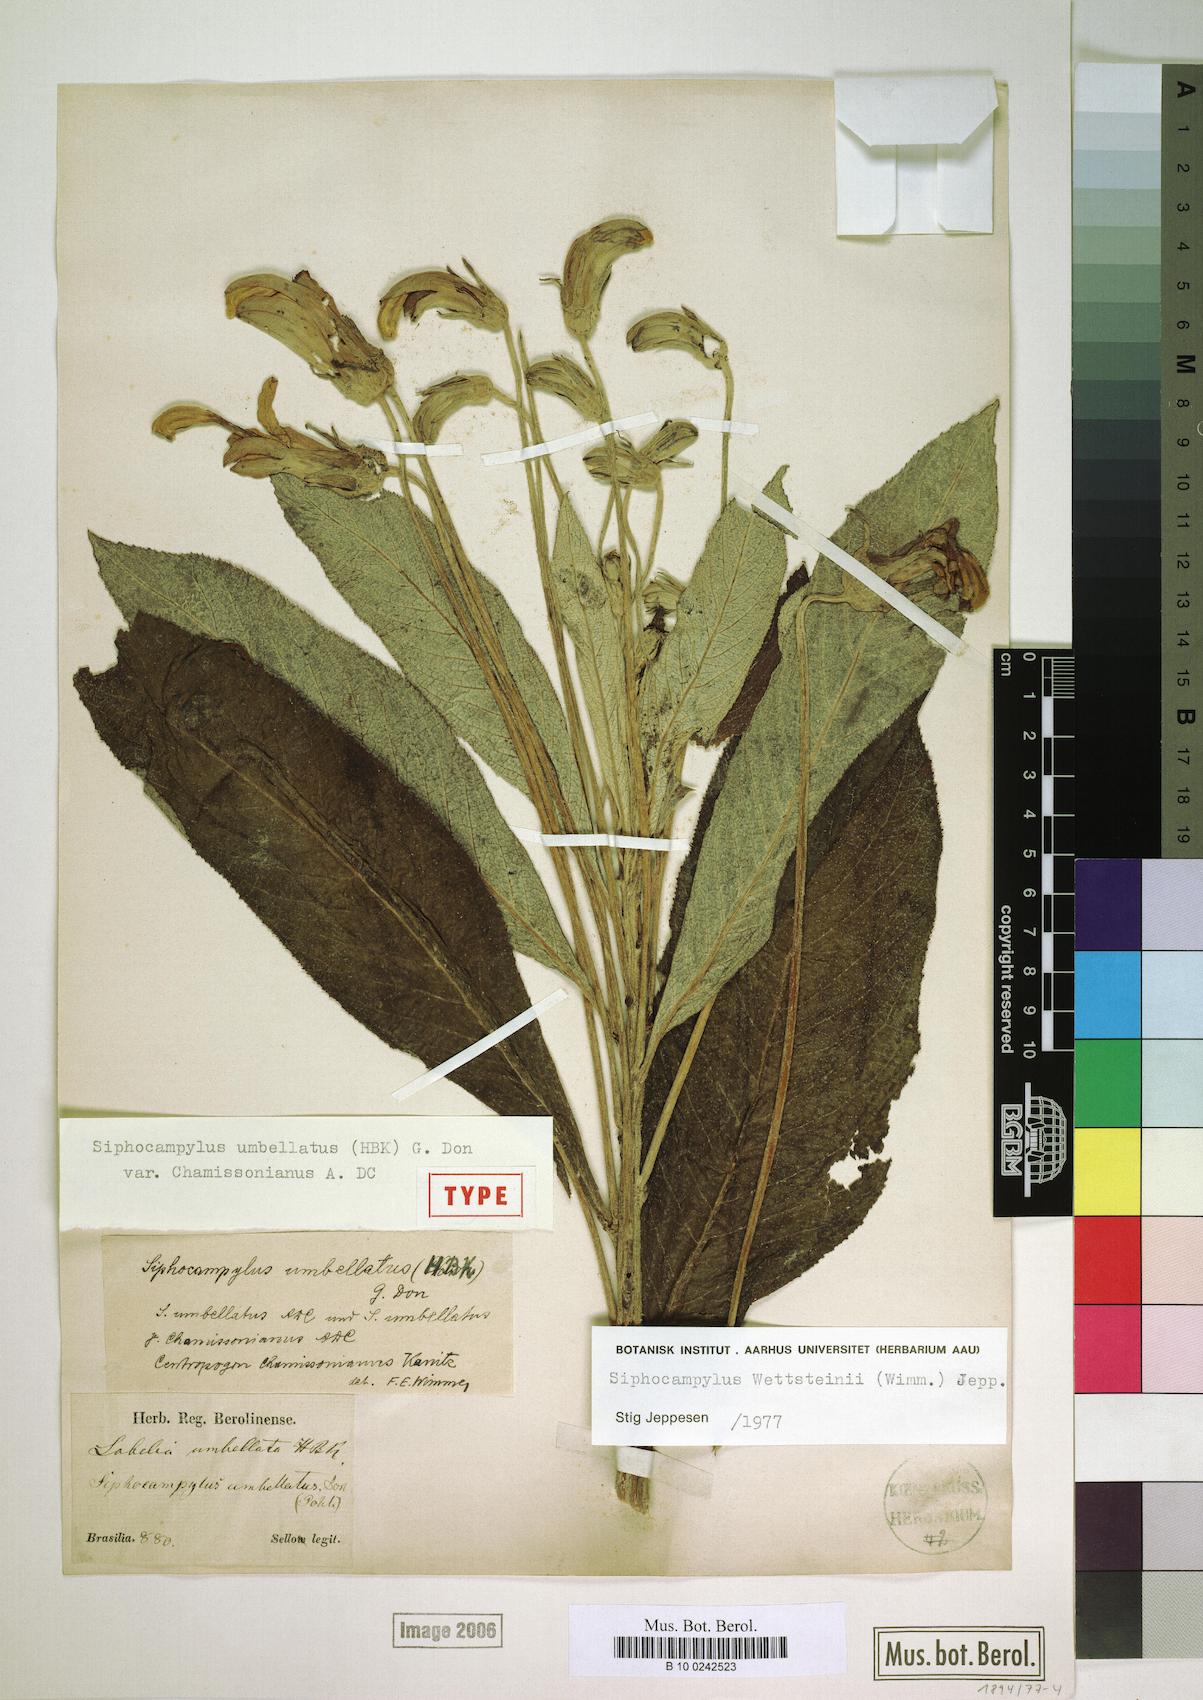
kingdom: Plantae
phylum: Tracheophyta
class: Magnoliopsida
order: Asterales
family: Campanulaceae
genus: Siphocampylus
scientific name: Siphocampylus
